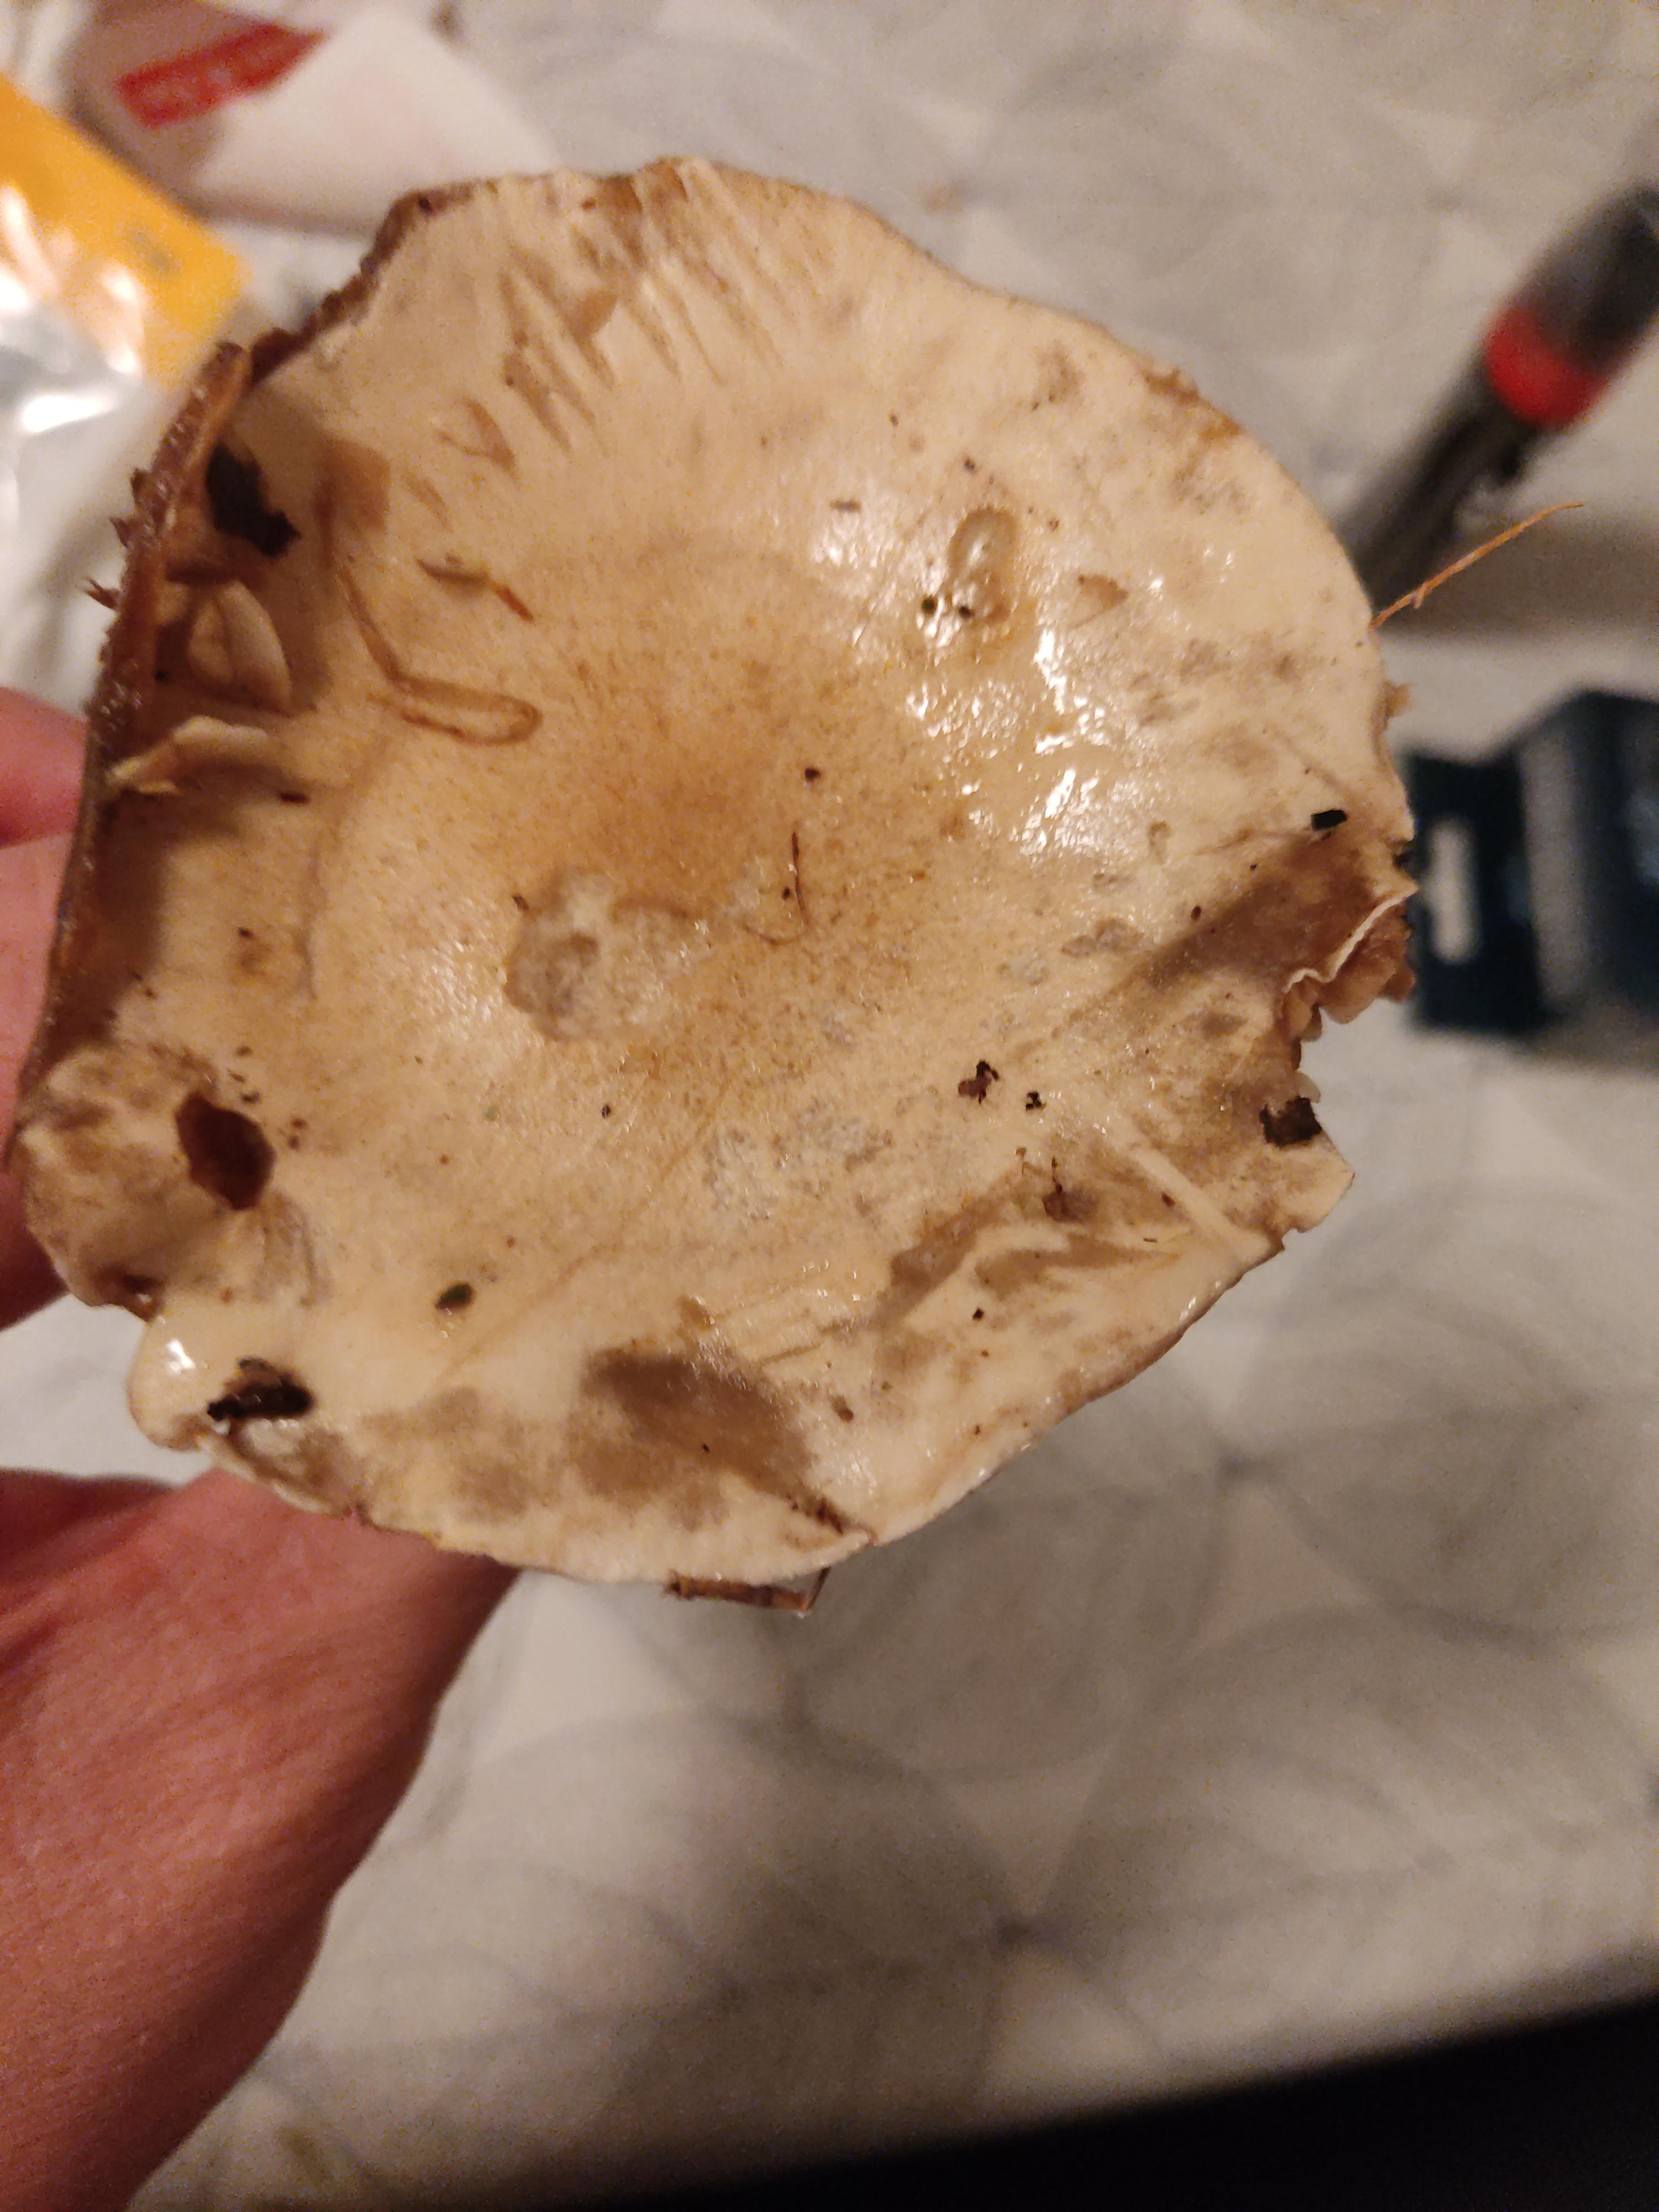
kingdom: Fungi
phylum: Basidiomycota
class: Agaricomycetes
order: Agaricales
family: Hymenogastraceae
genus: Hebeloma
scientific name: Hebeloma
